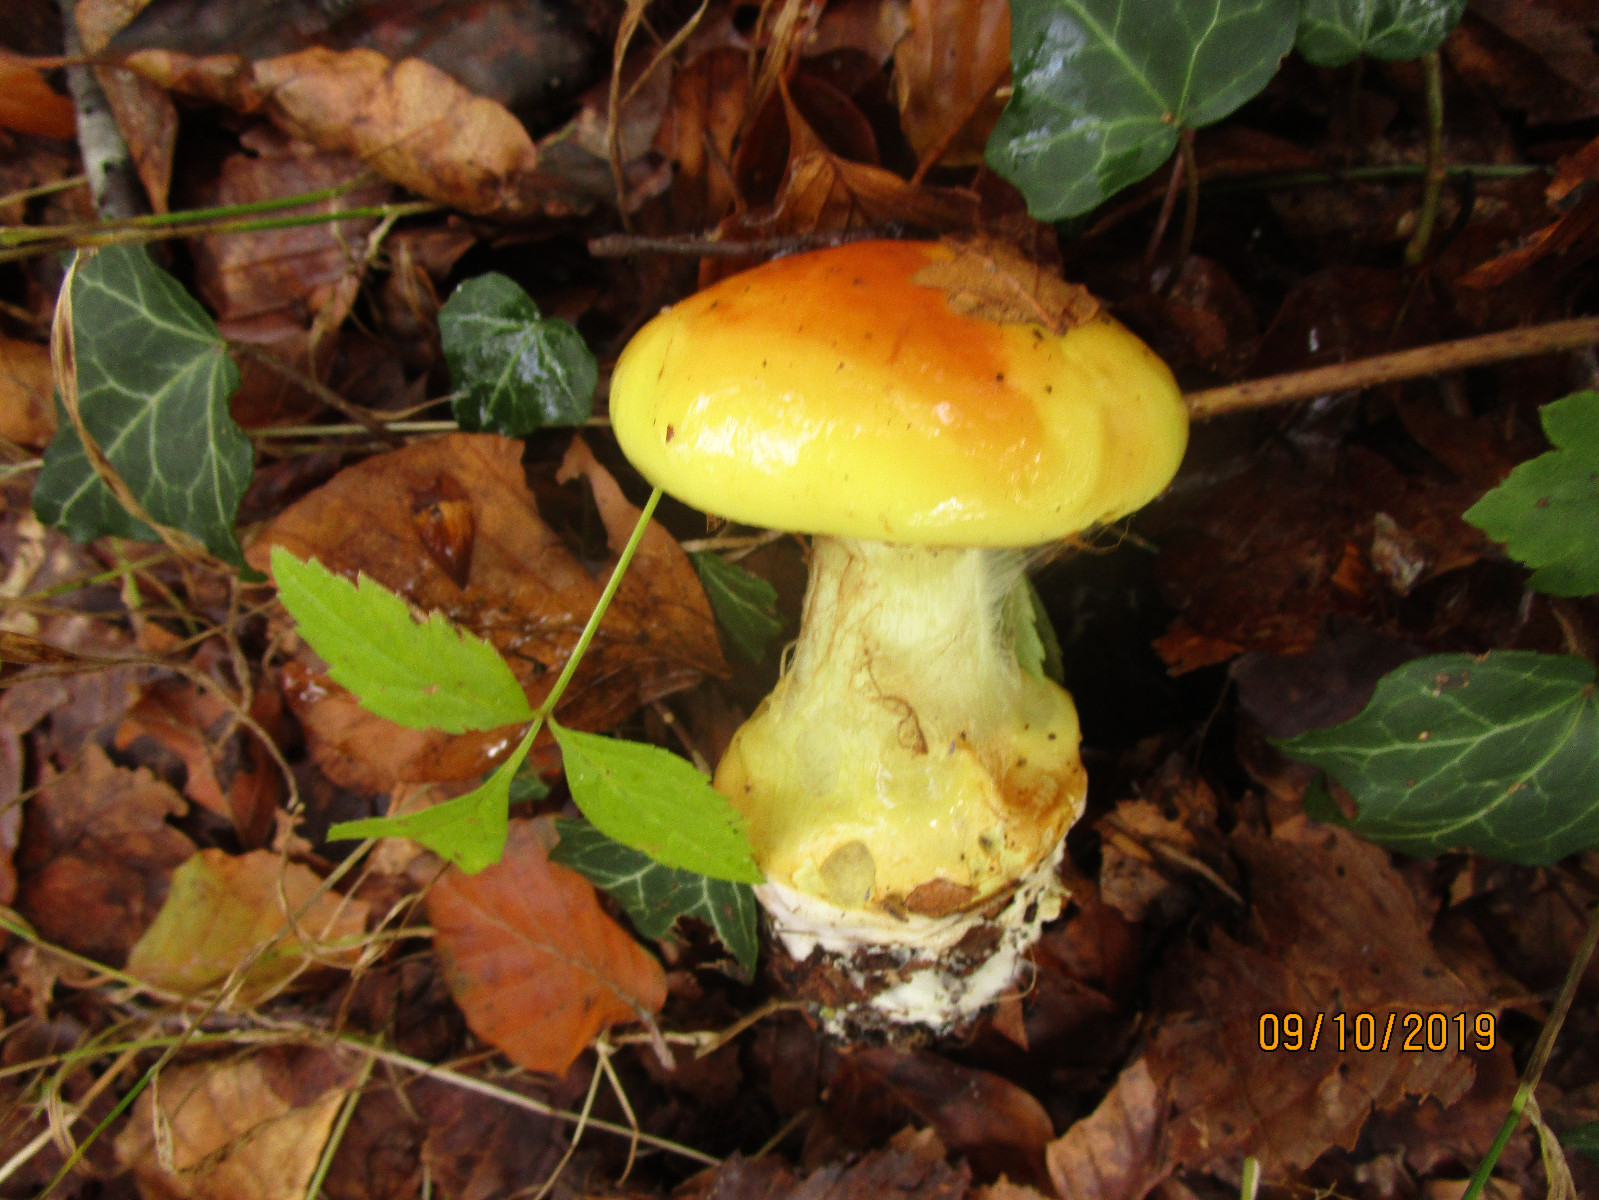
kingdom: Fungi
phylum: Basidiomycota
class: Agaricomycetes
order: Agaricales
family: Cortinariaceae
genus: Calonarius
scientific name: Calonarius elegantissimus
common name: orangegylden slørhat
